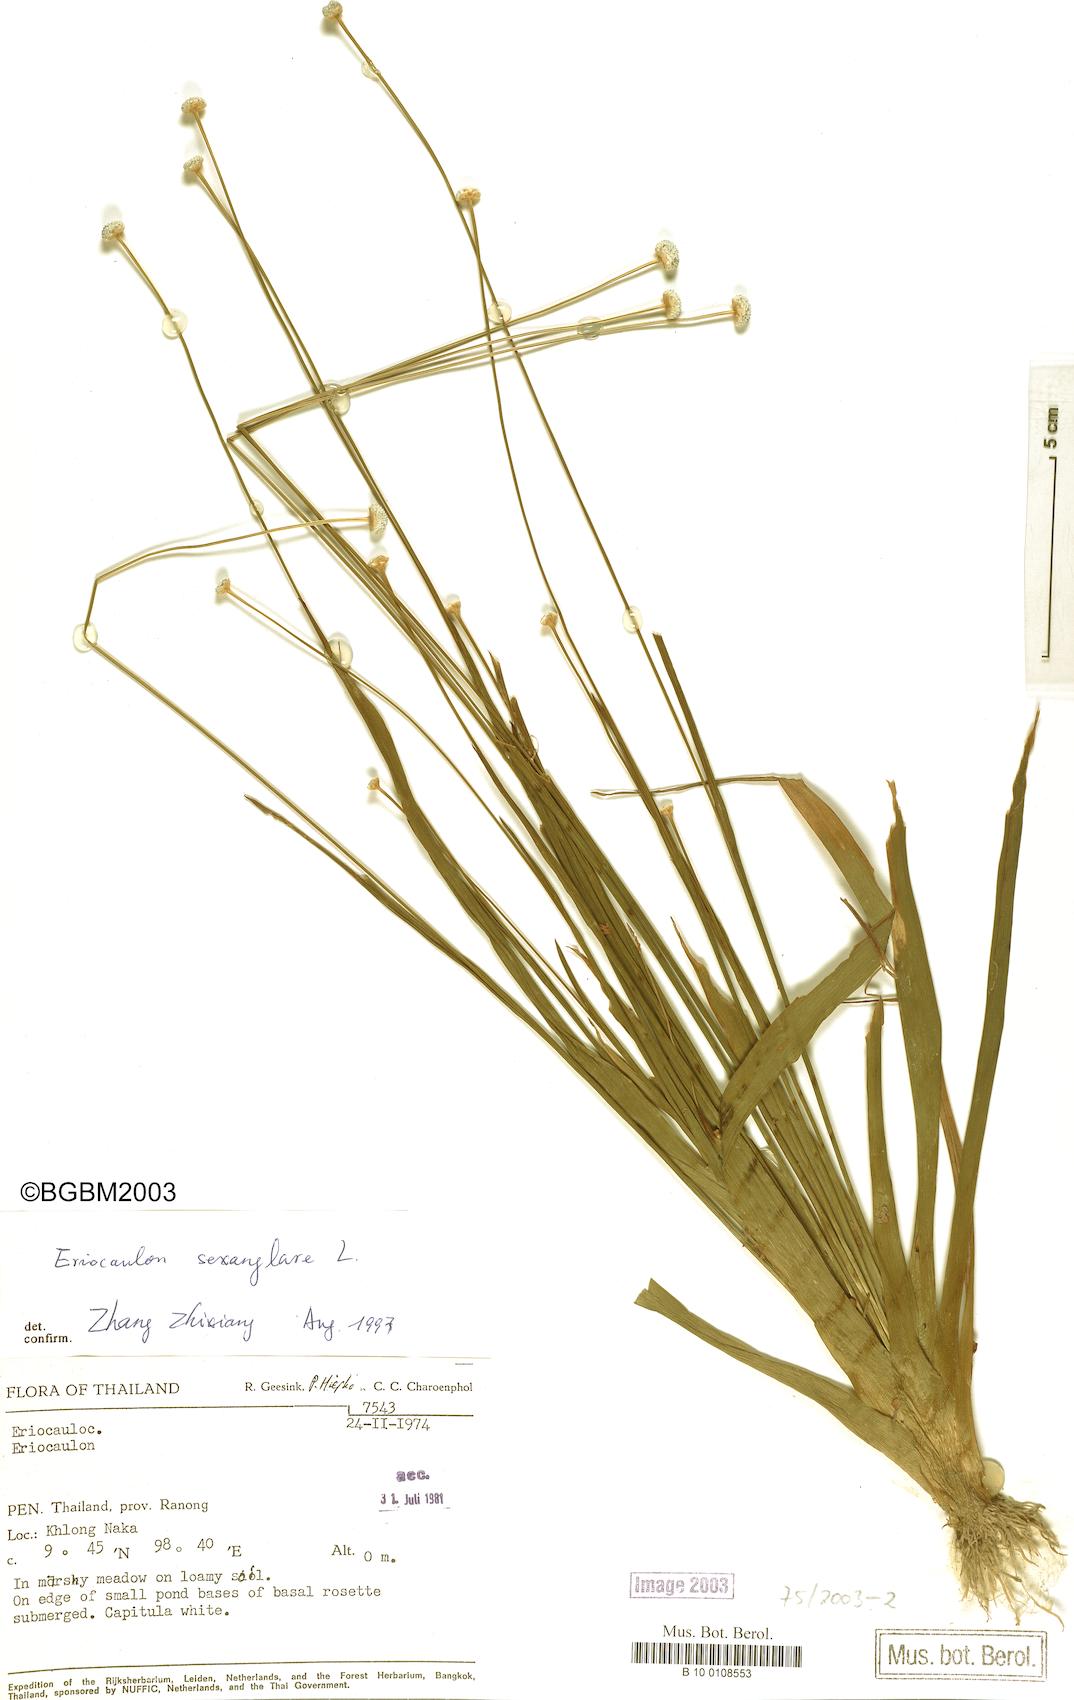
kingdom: Plantae
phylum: Tracheophyta
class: Liliopsida
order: Poales
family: Eriocaulaceae
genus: Eriocaulon
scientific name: Eriocaulon sexangulare
